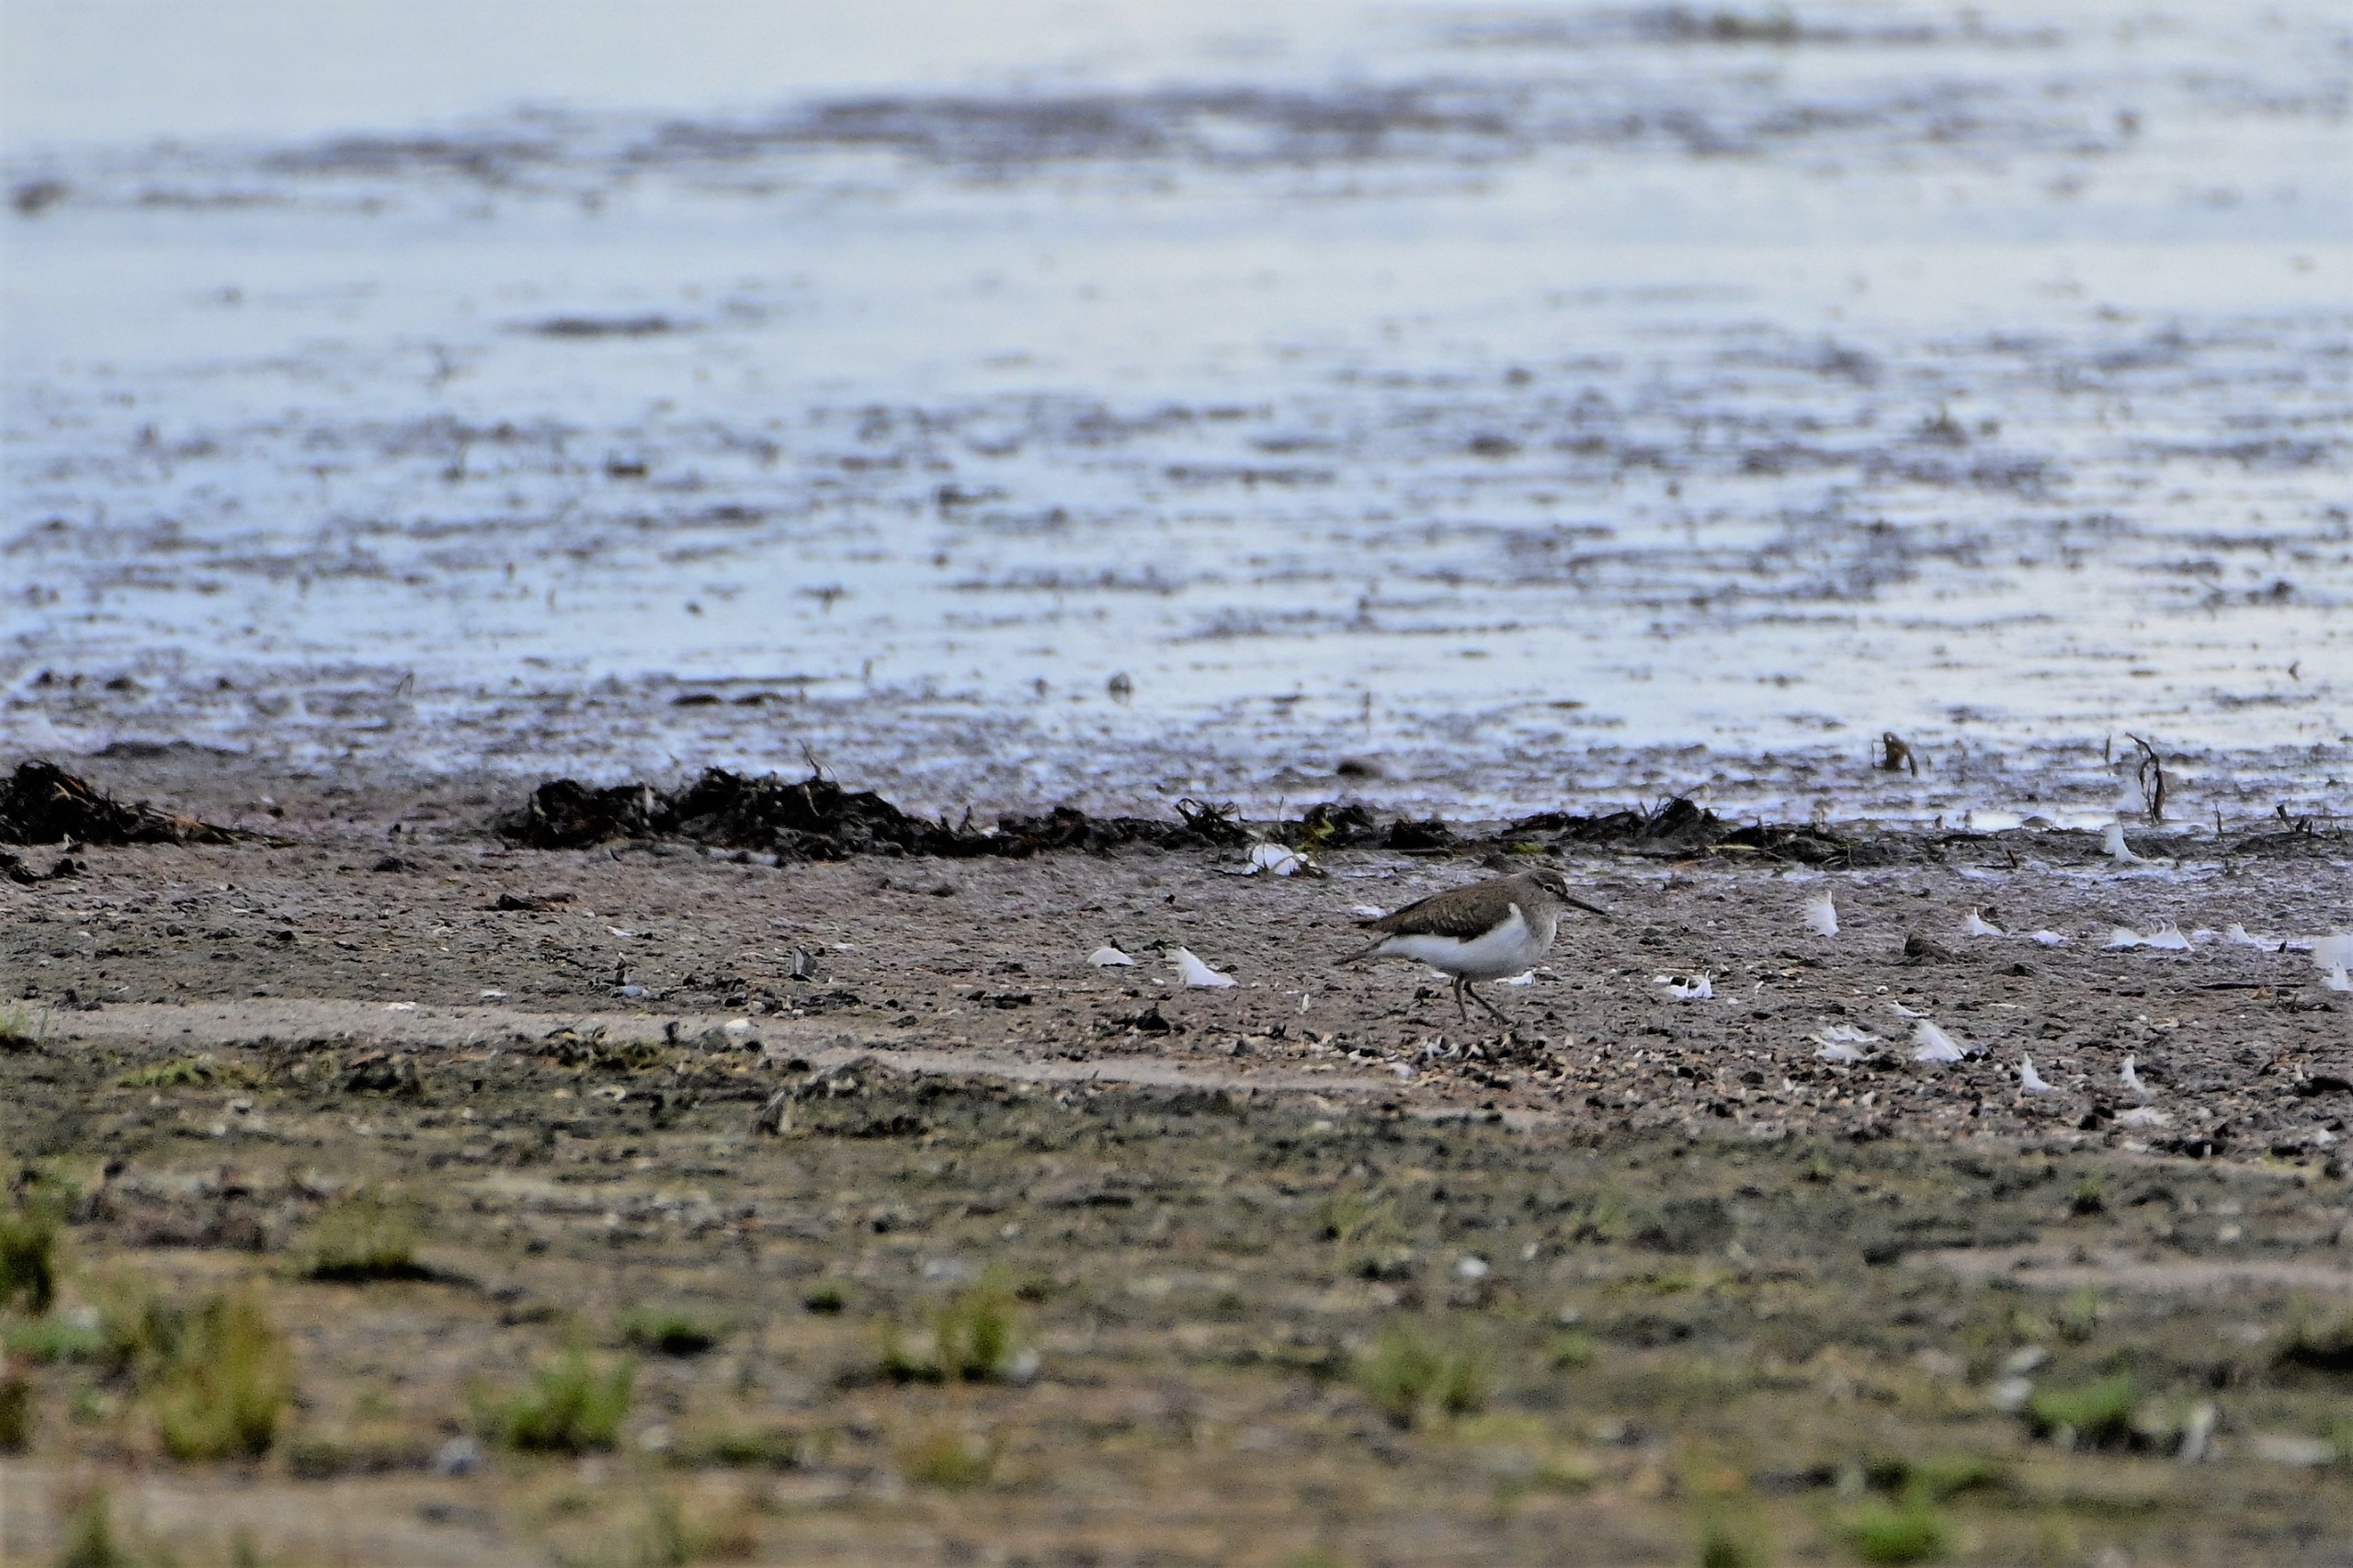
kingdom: Animalia
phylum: Chordata
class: Aves
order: Charadriiformes
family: Scolopacidae
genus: Actitis
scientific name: Actitis hypoleucos
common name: Mudderklire
